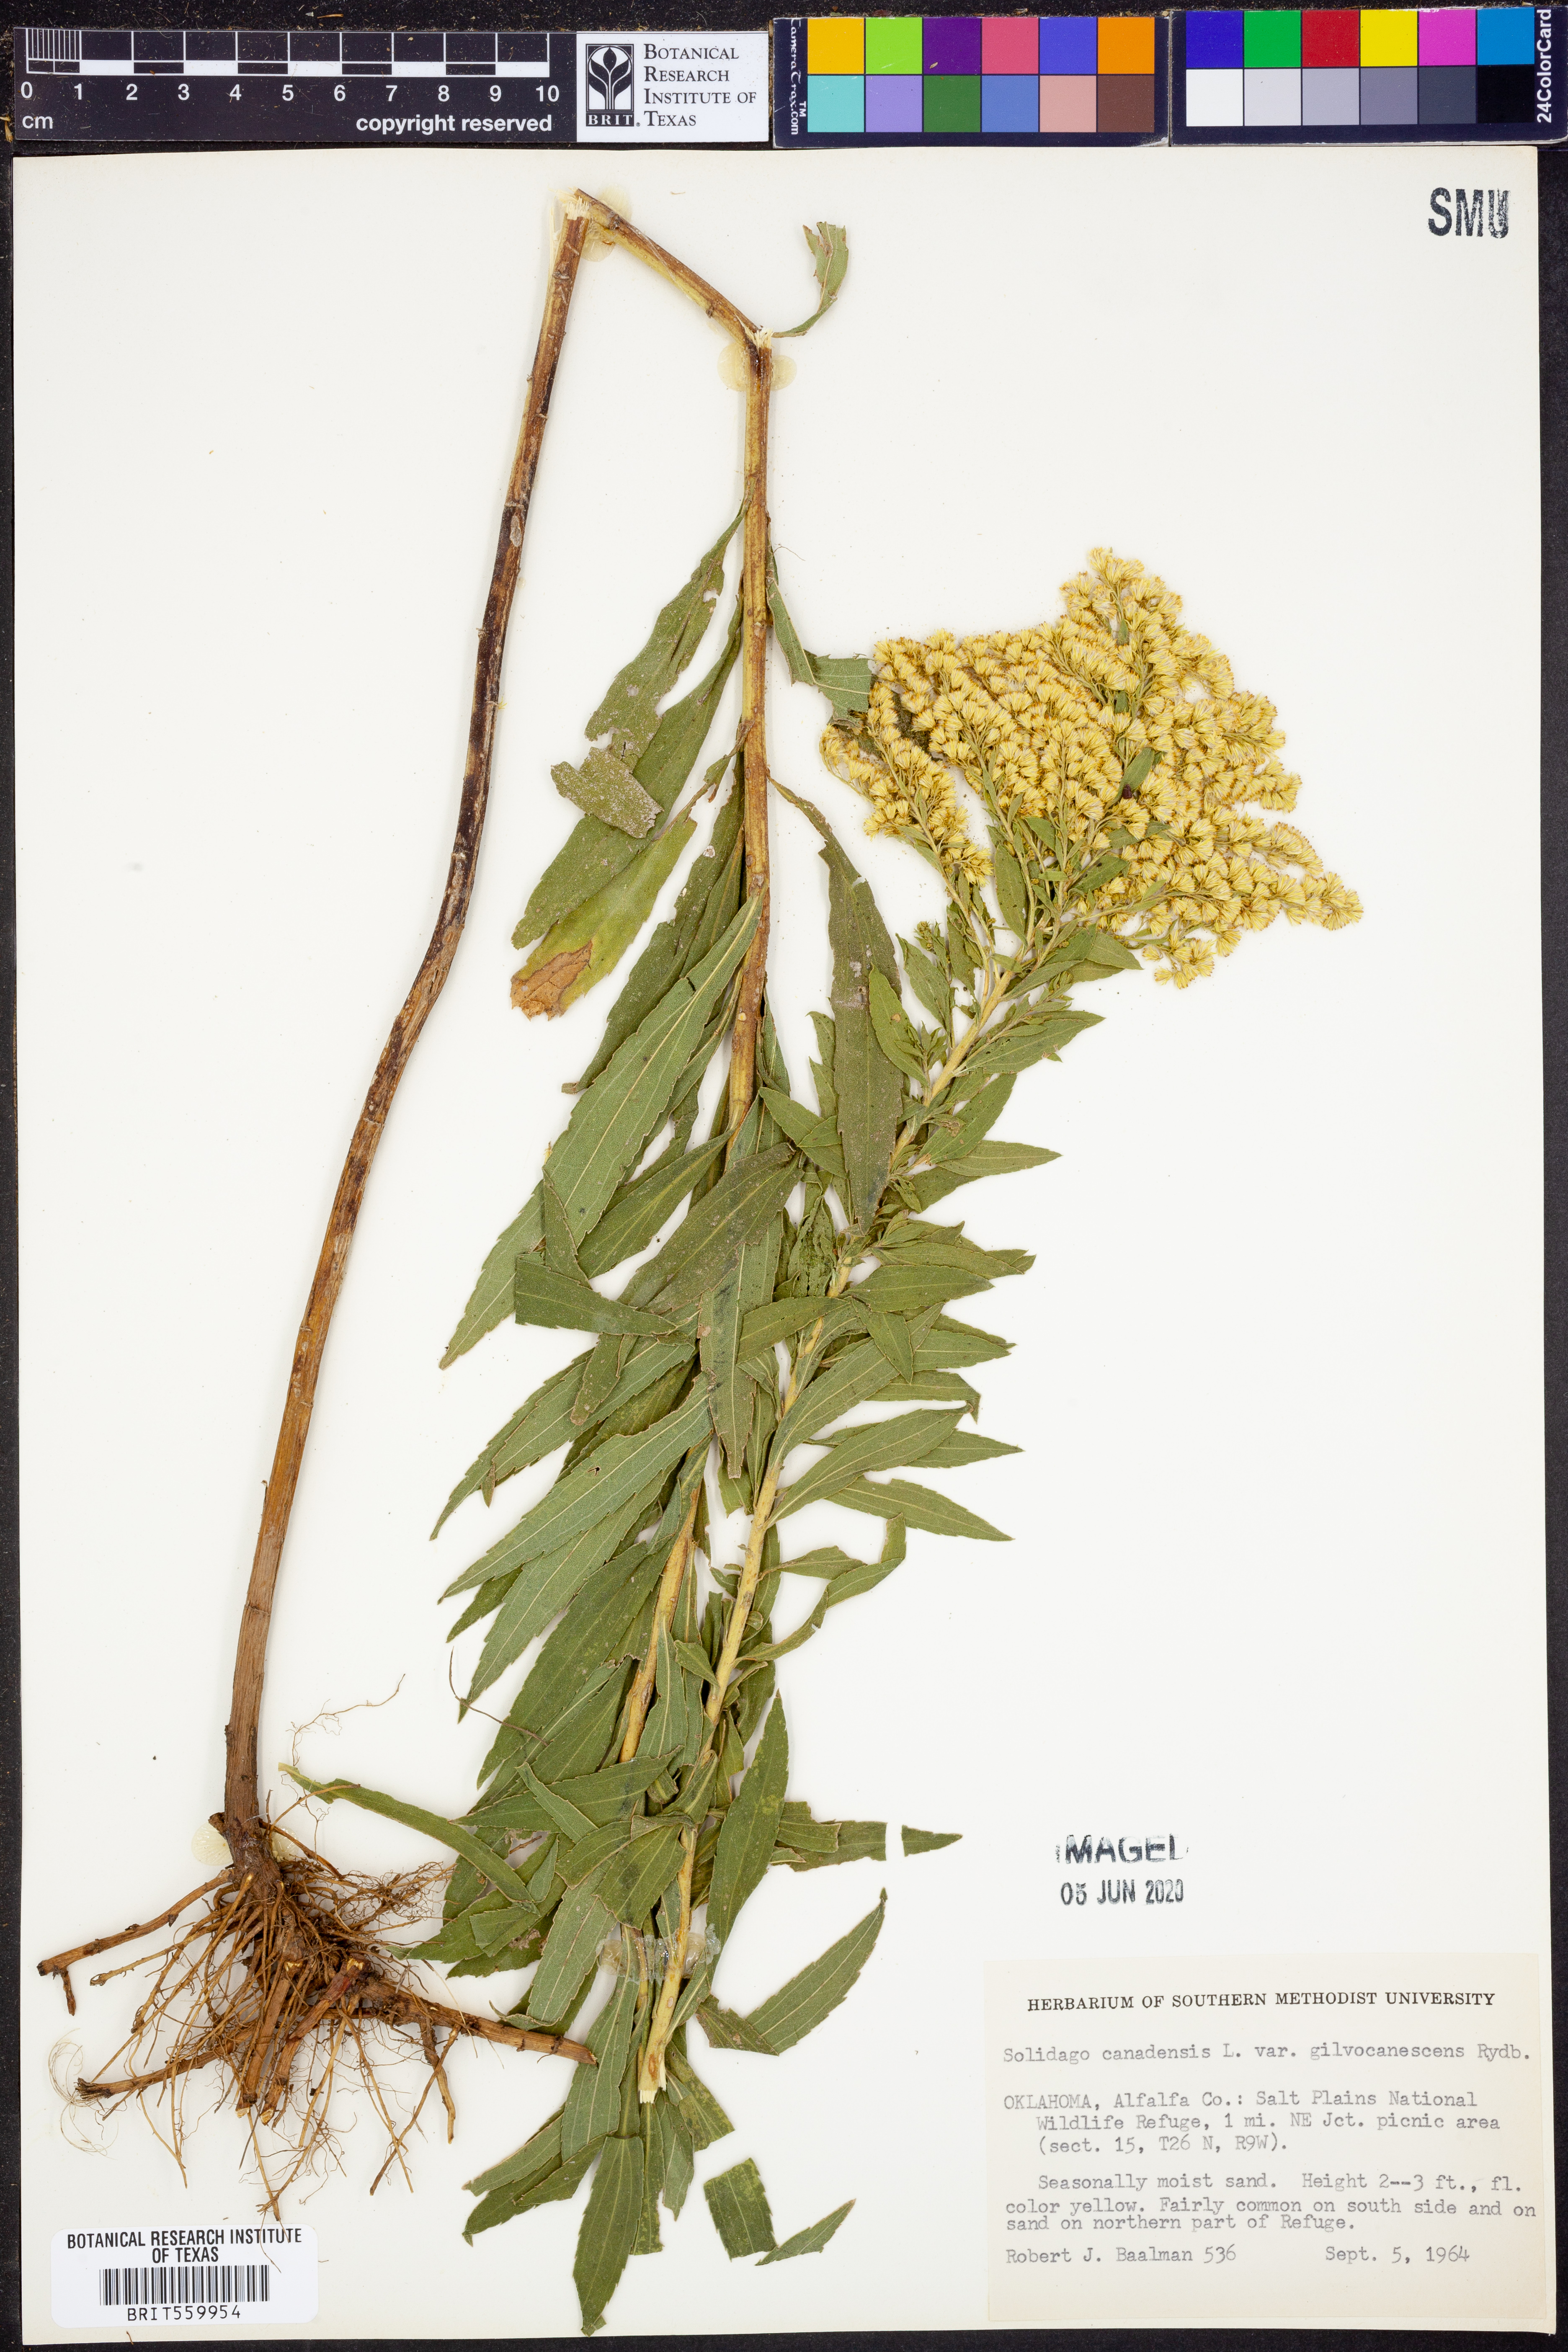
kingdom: Plantae
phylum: Tracheophyta
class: Magnoliopsida
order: Asterales
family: Asteraceae
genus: Solidago
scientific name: Solidago altissima
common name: Late goldenrod
